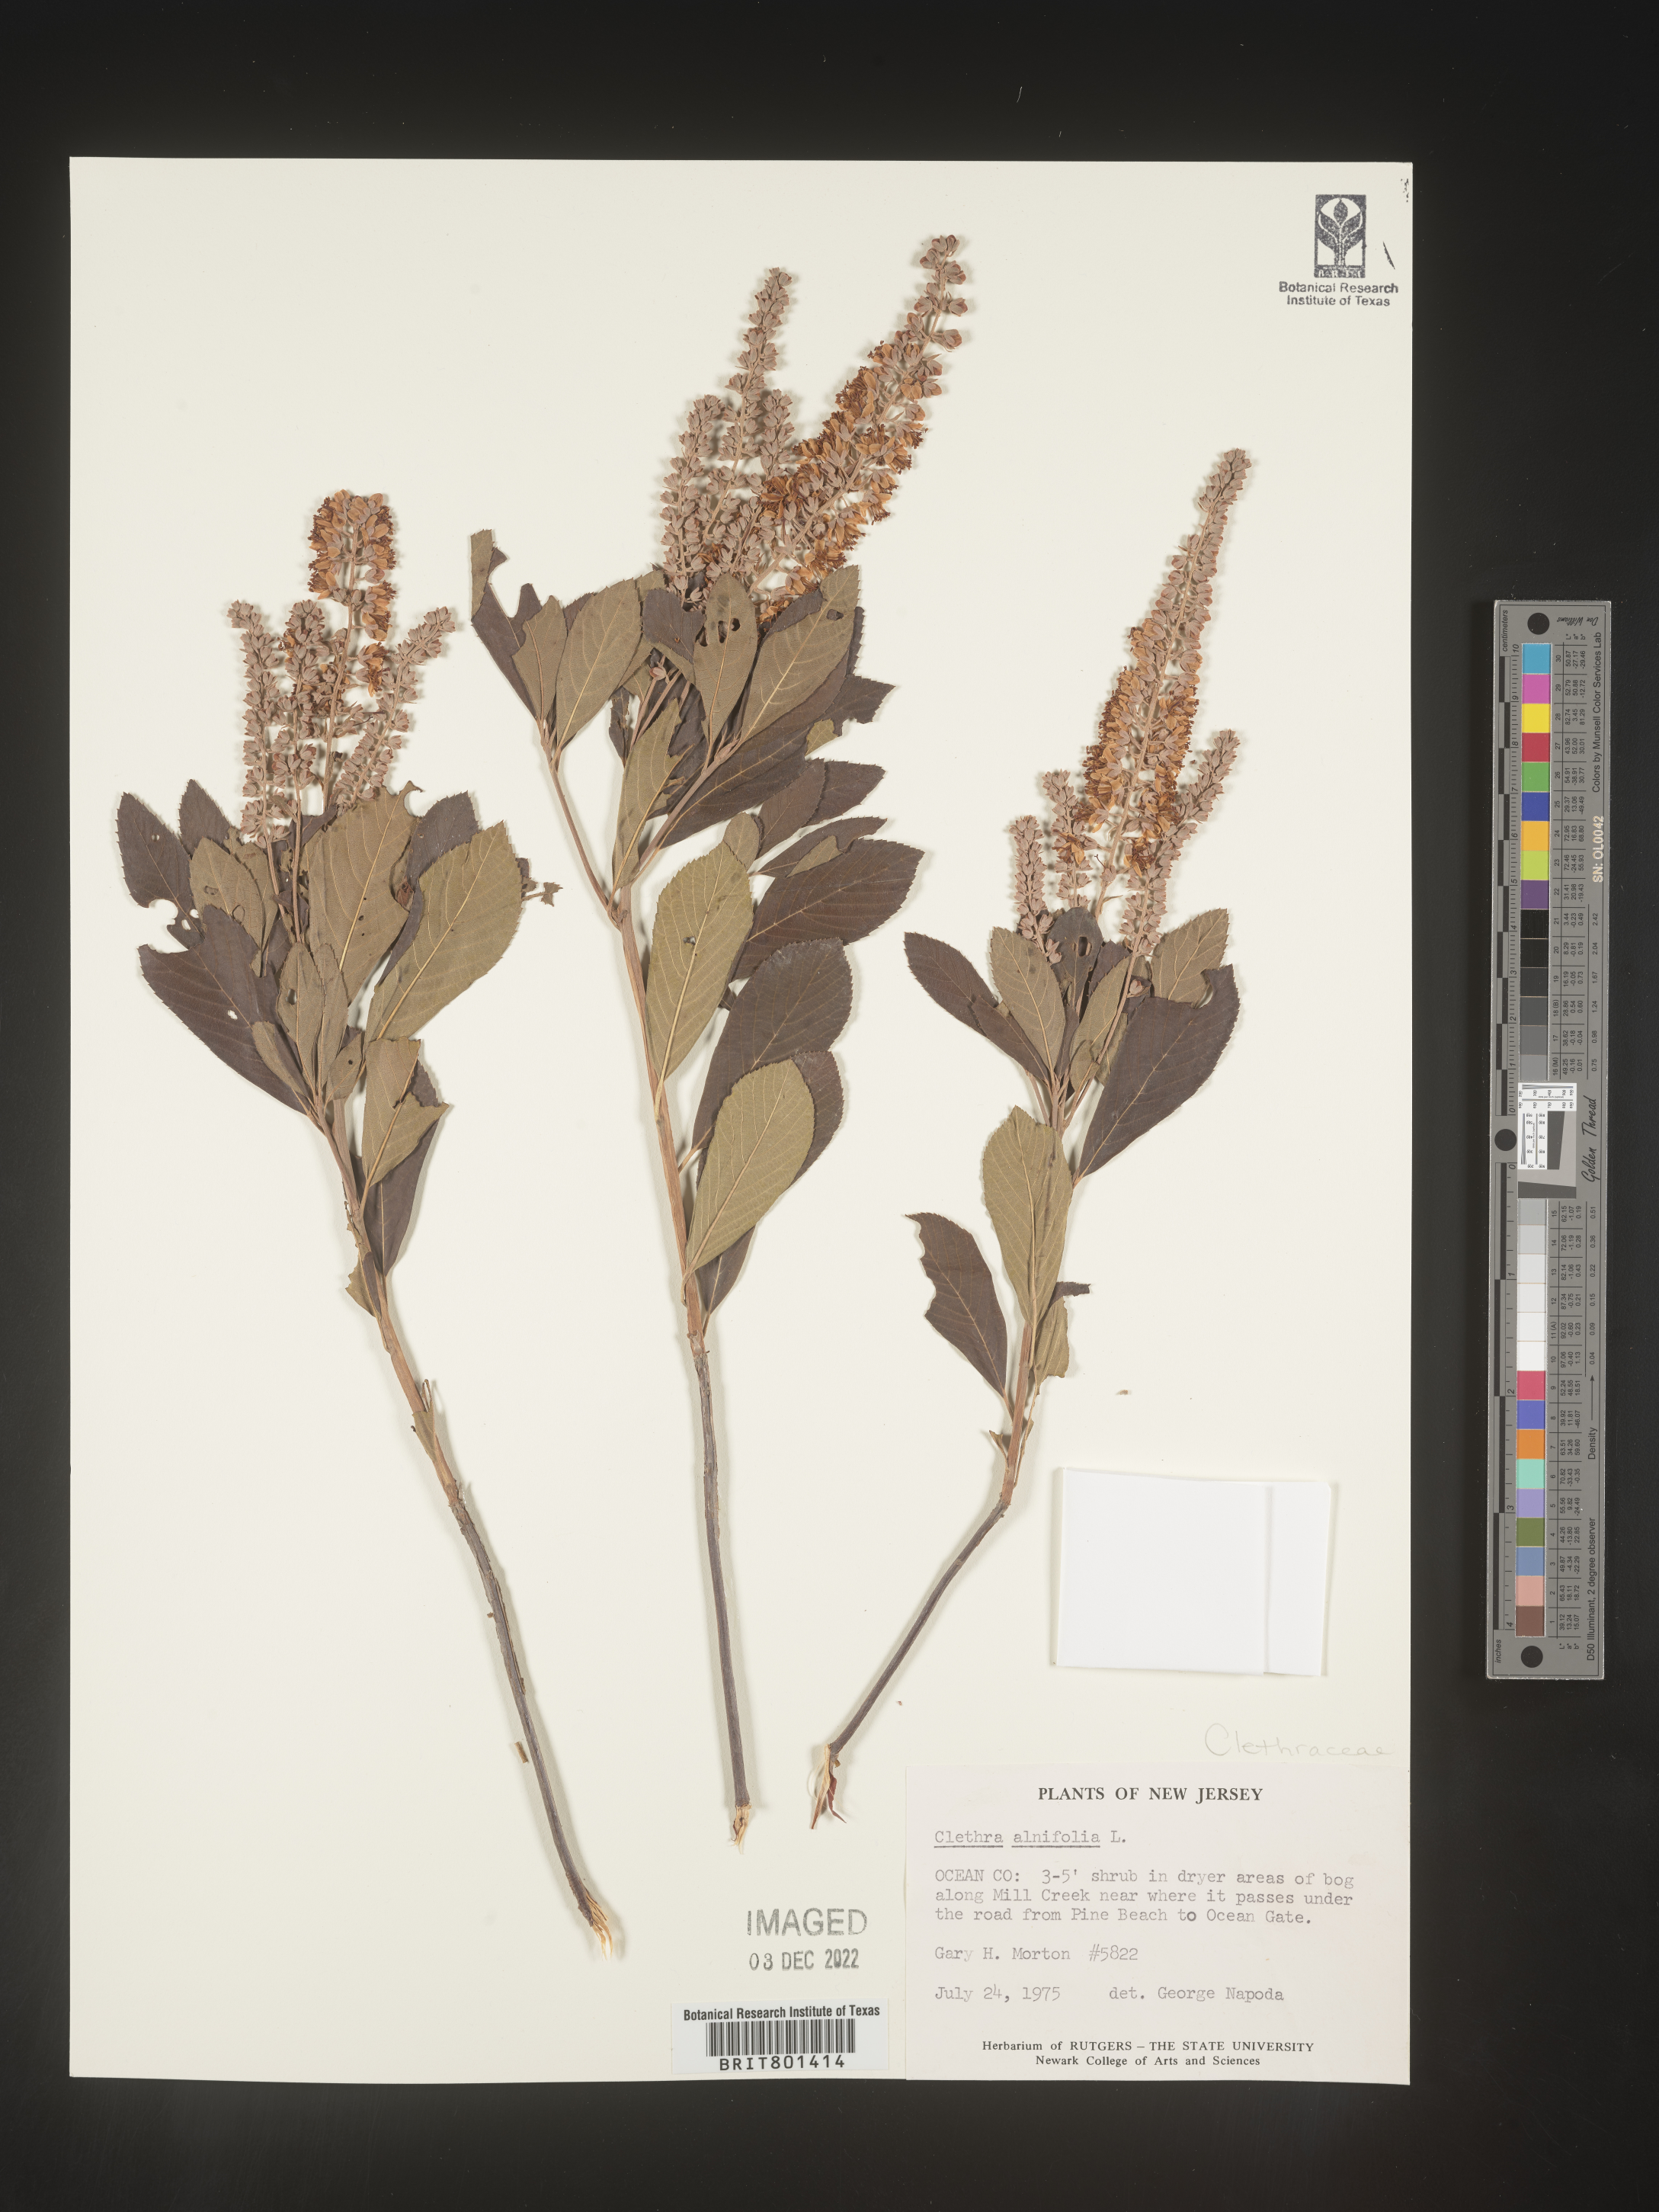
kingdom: Plantae
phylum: Tracheophyta
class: Magnoliopsida
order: Ericales
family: Clethraceae
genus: Clethra
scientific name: Clethra alnifolia
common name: Sweet pepperbush
